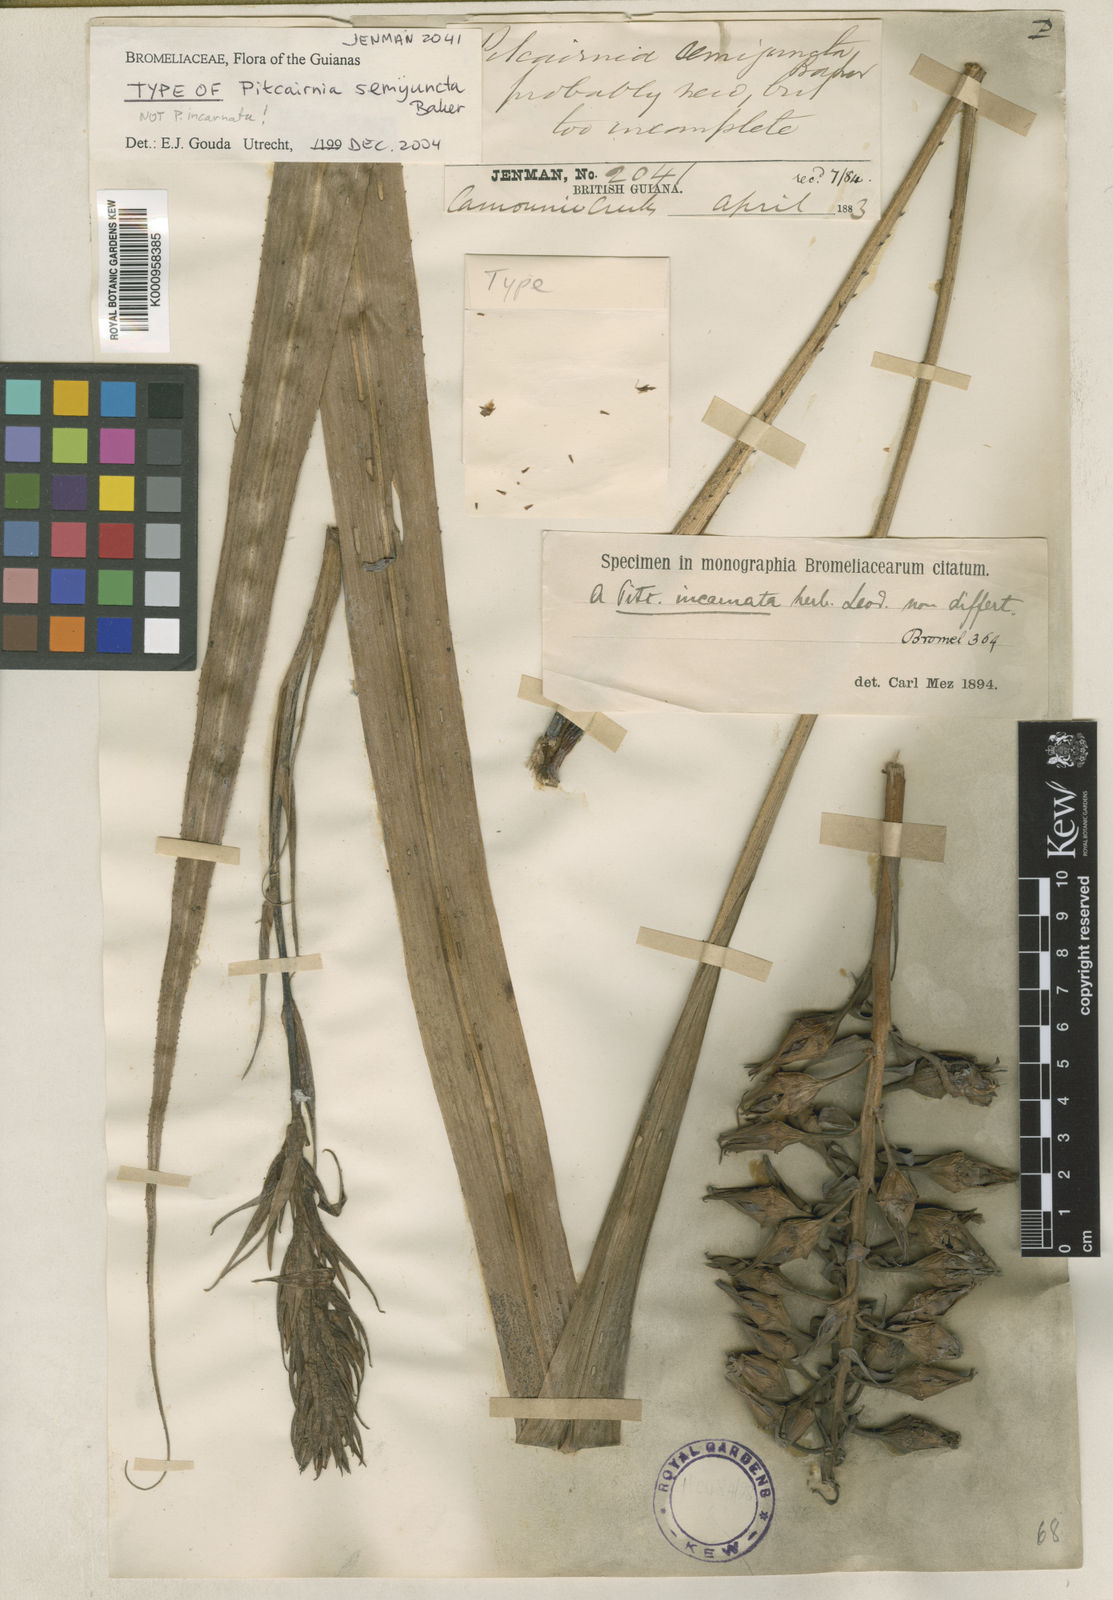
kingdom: Plantae
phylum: Tracheophyta
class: Liliopsida
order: Poales
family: Bromeliaceae
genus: Pitcairnia
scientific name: Pitcairnia semijuncta
